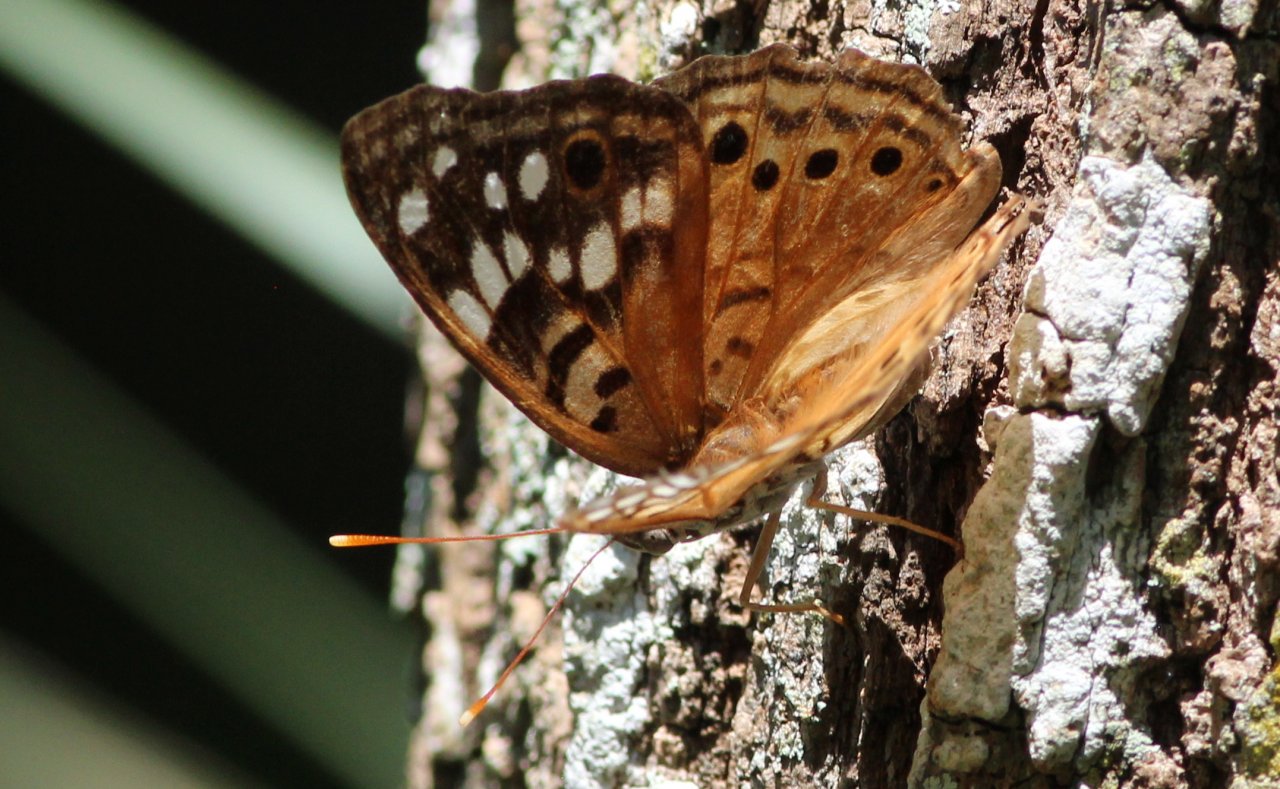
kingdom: Animalia
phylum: Arthropoda
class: Insecta
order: Lepidoptera
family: Nymphalidae
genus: Asterocampa
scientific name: Asterocampa celtis
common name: Hackberry Emperor
